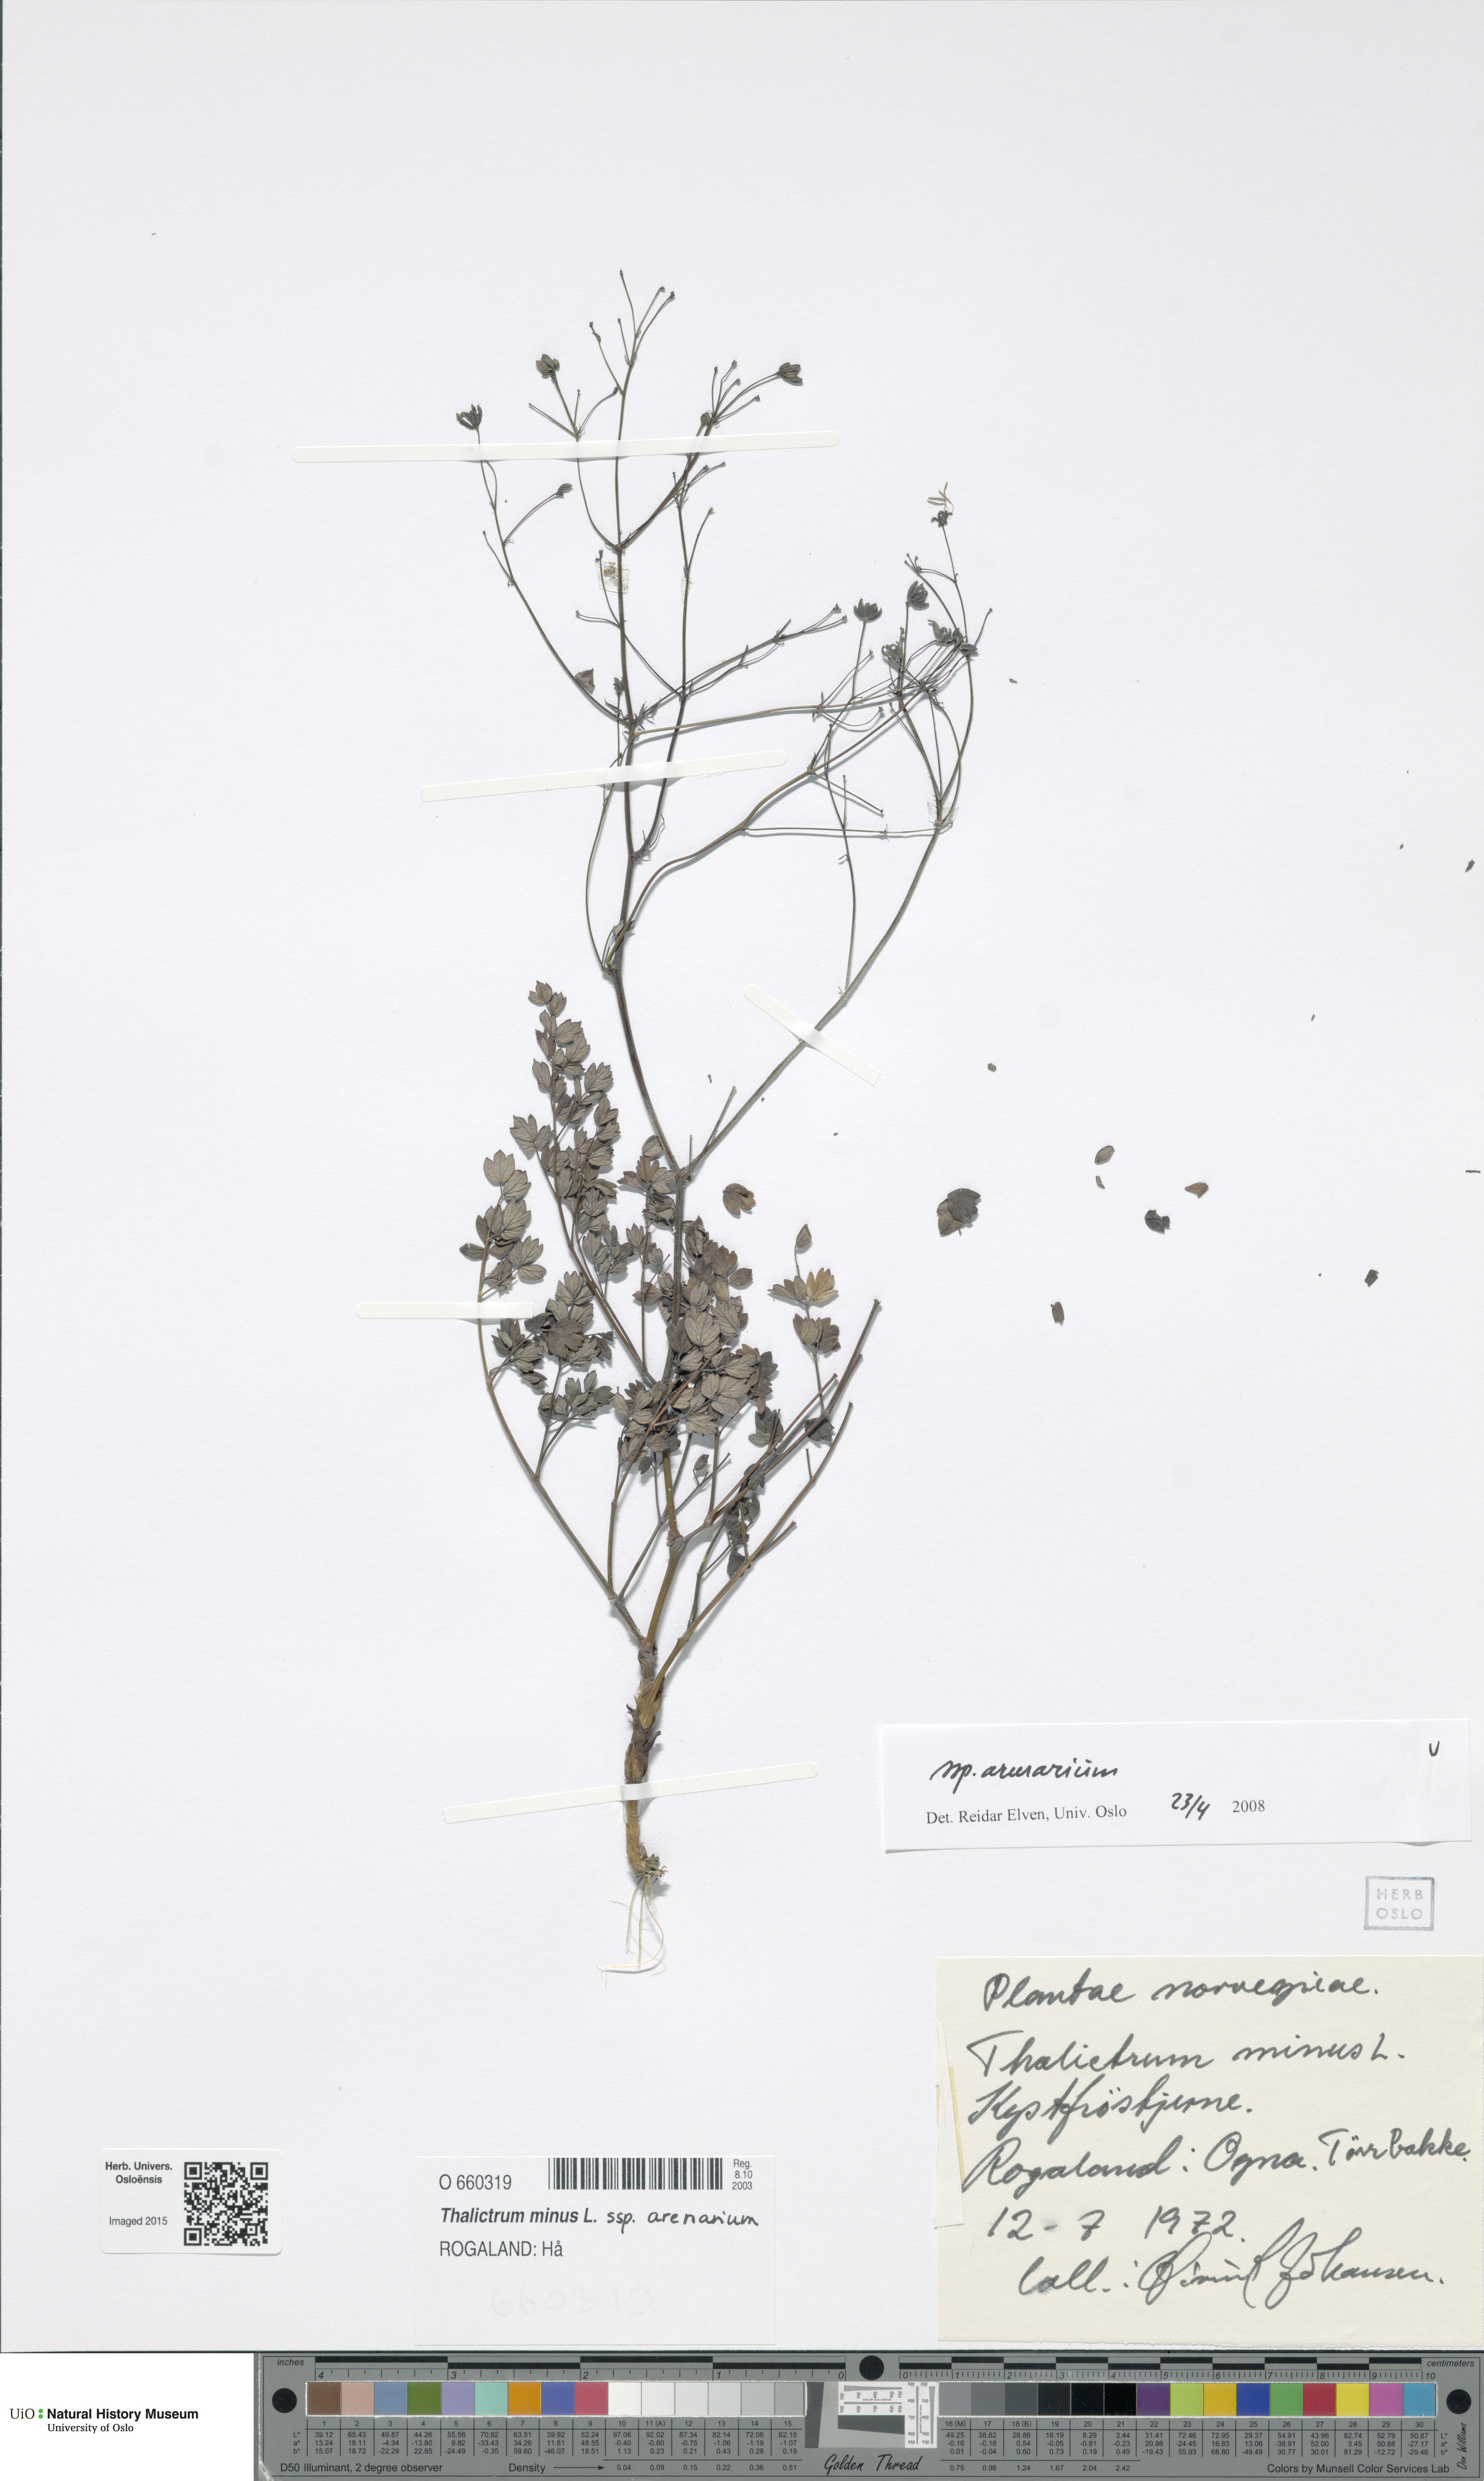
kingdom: Plantae
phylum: Tracheophyta
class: Magnoliopsida
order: Ranunculales
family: Ranunculaceae
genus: Thalictrum
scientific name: Thalictrum minus
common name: Lesser meadow-rue
